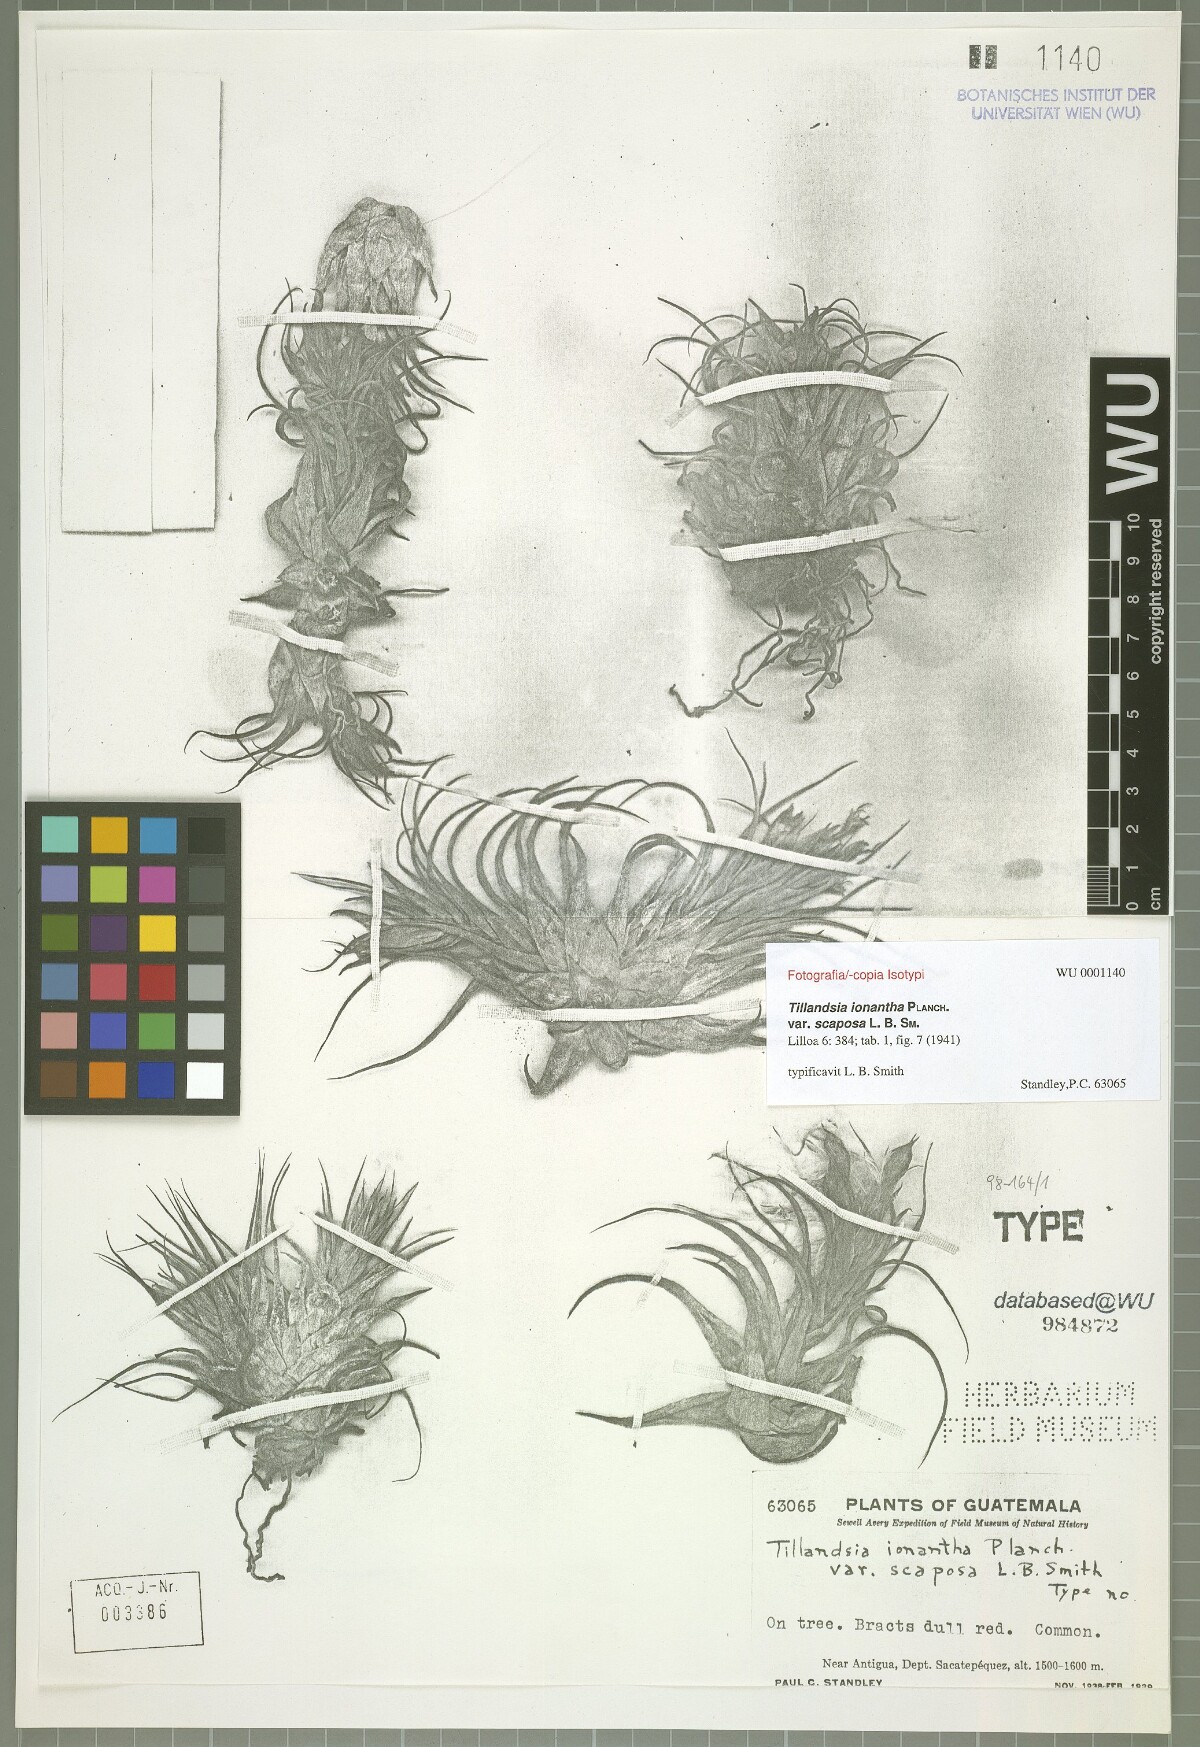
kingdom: Plantae
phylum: Tracheophyta
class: Liliopsida
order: Poales
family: Bromeliaceae
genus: Tillandsia
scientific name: Tillandsia kolbii
